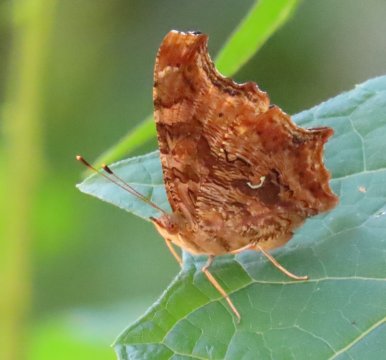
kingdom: Animalia
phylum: Arthropoda
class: Insecta
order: Lepidoptera
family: Nymphalidae
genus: Polygonia
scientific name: Polygonia comma
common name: Eastern Comma
